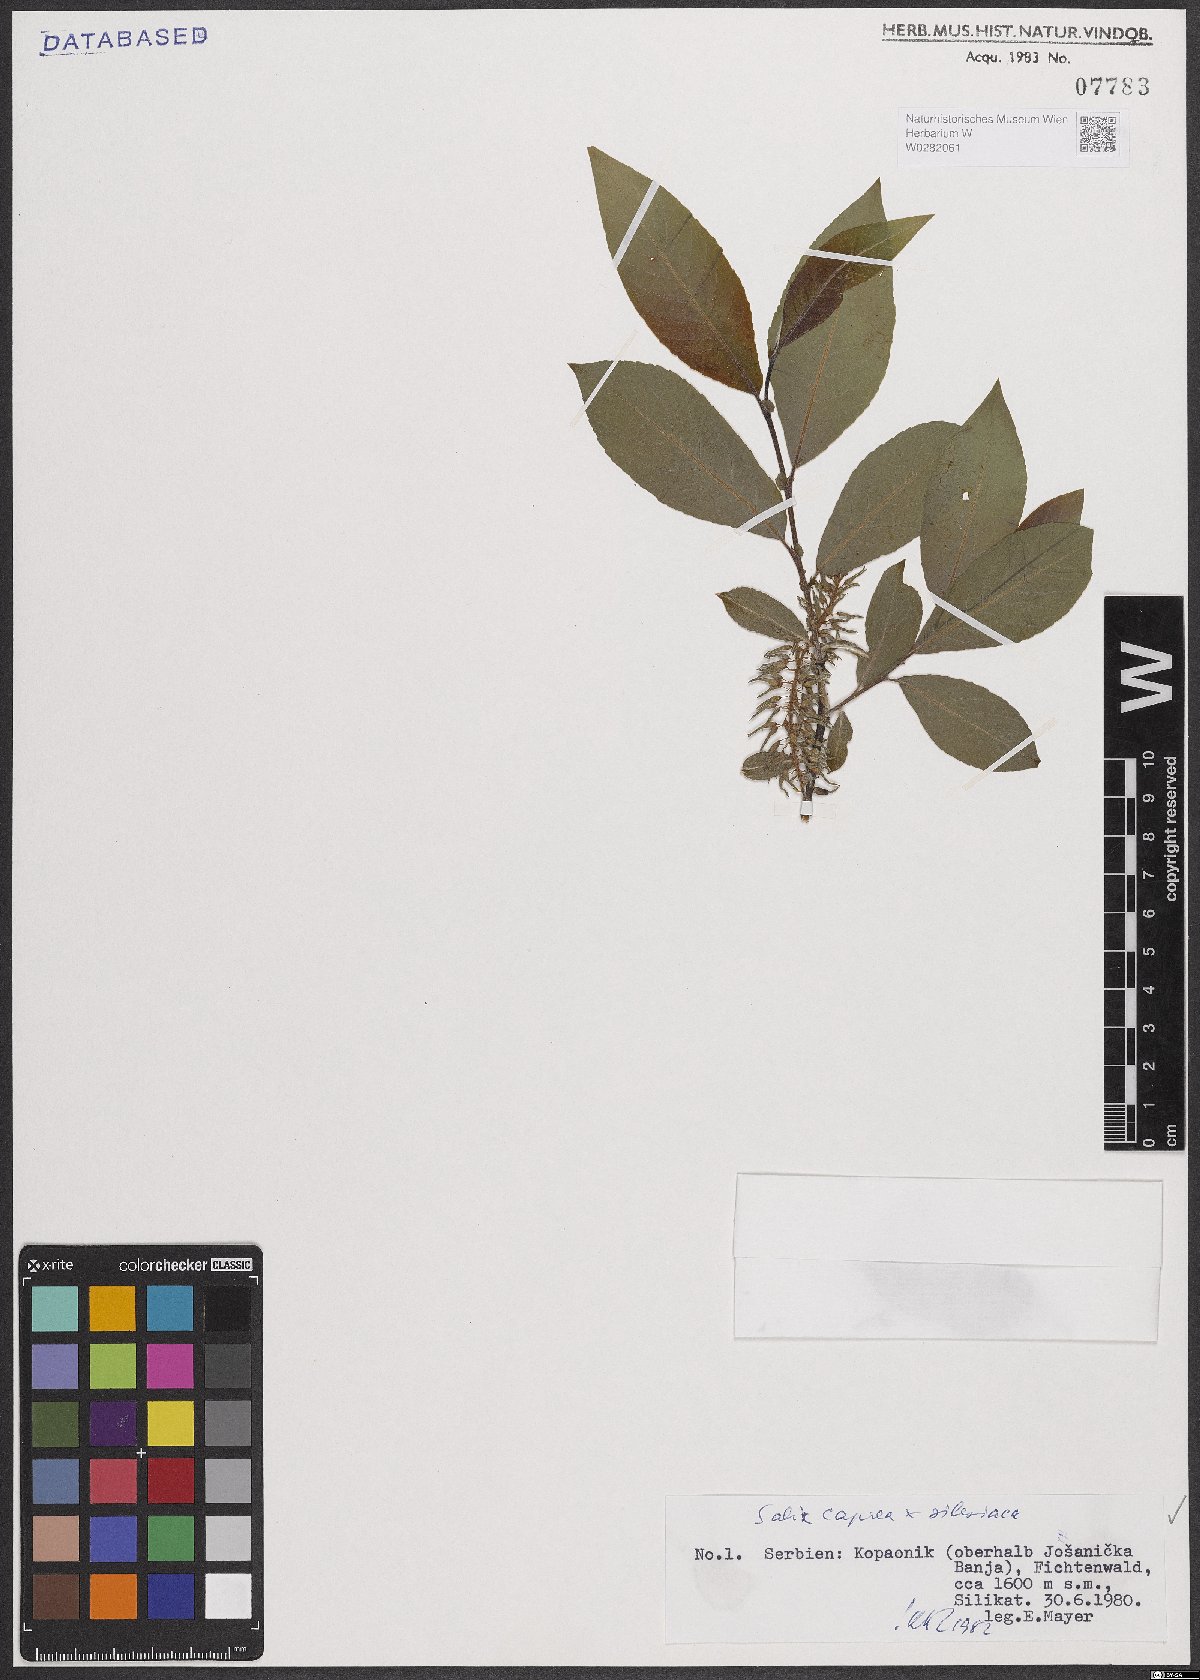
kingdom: Plantae
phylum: Tracheophyta
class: Magnoliopsida
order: Malpighiales
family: Salicaceae
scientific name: Salicaceae
